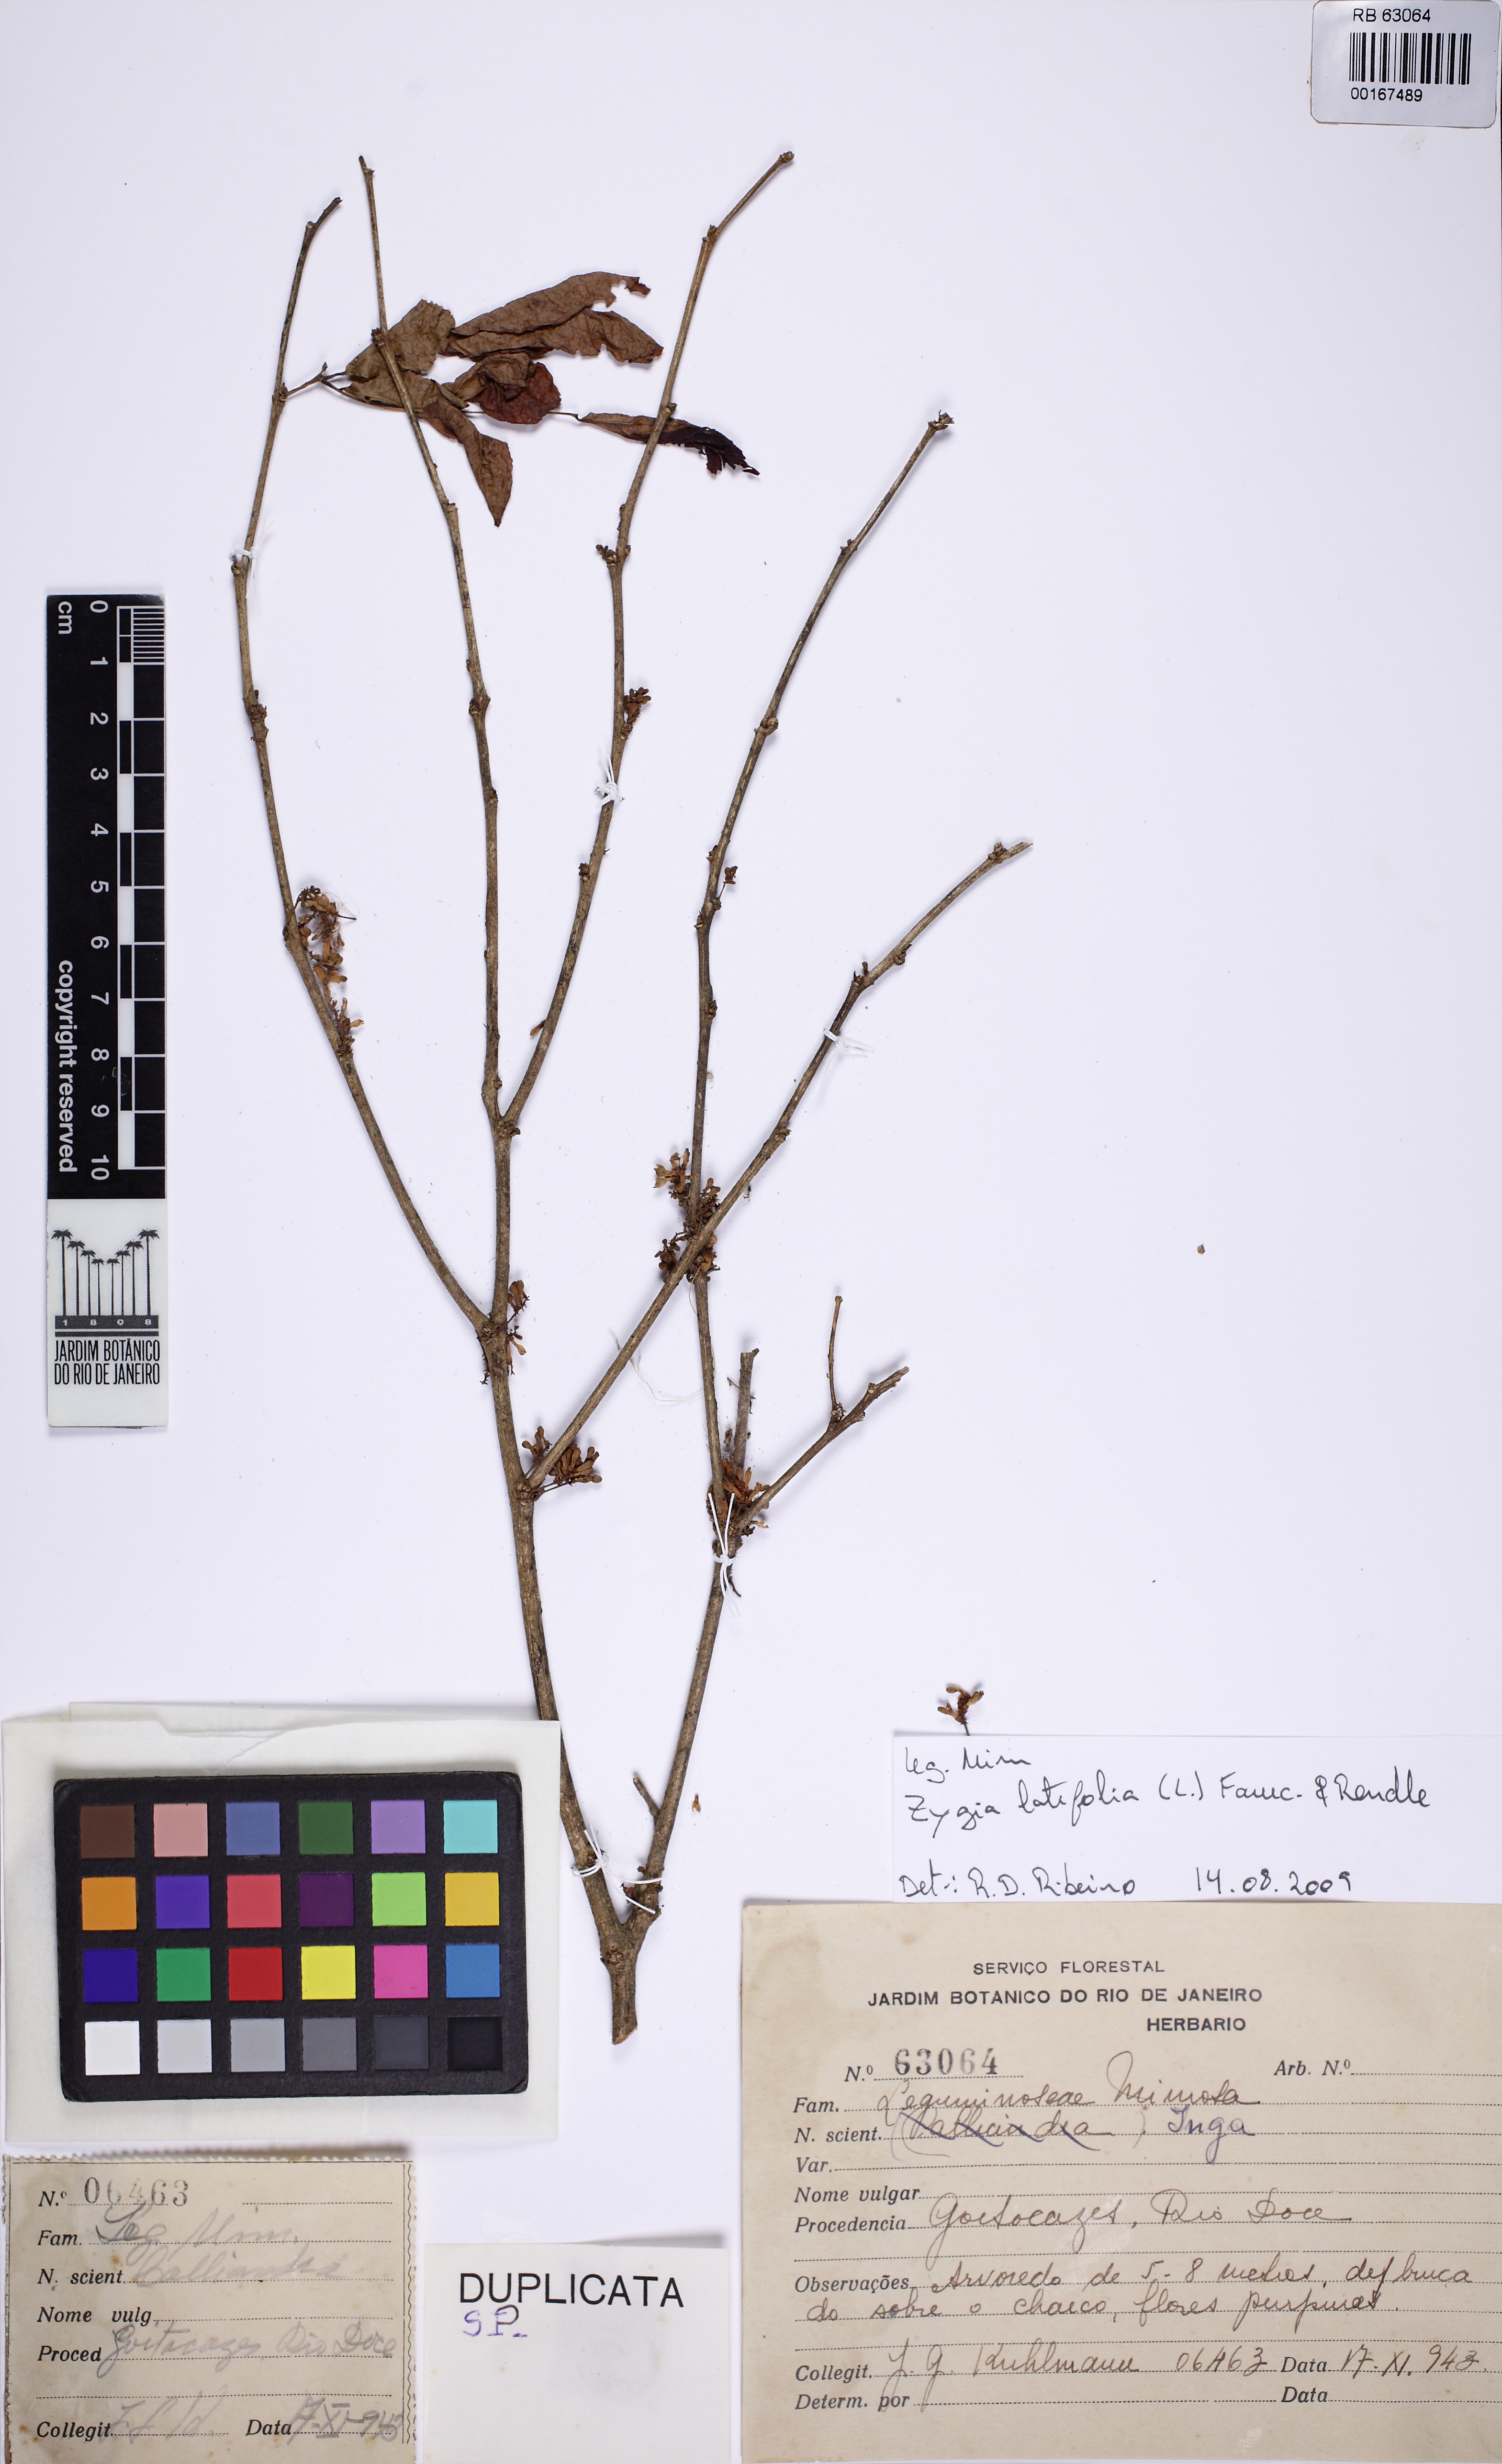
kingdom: Plantae
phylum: Tracheophyta
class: Magnoliopsida
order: Fabales
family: Fabaceae
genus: Zygia
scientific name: Zygia latifolia
